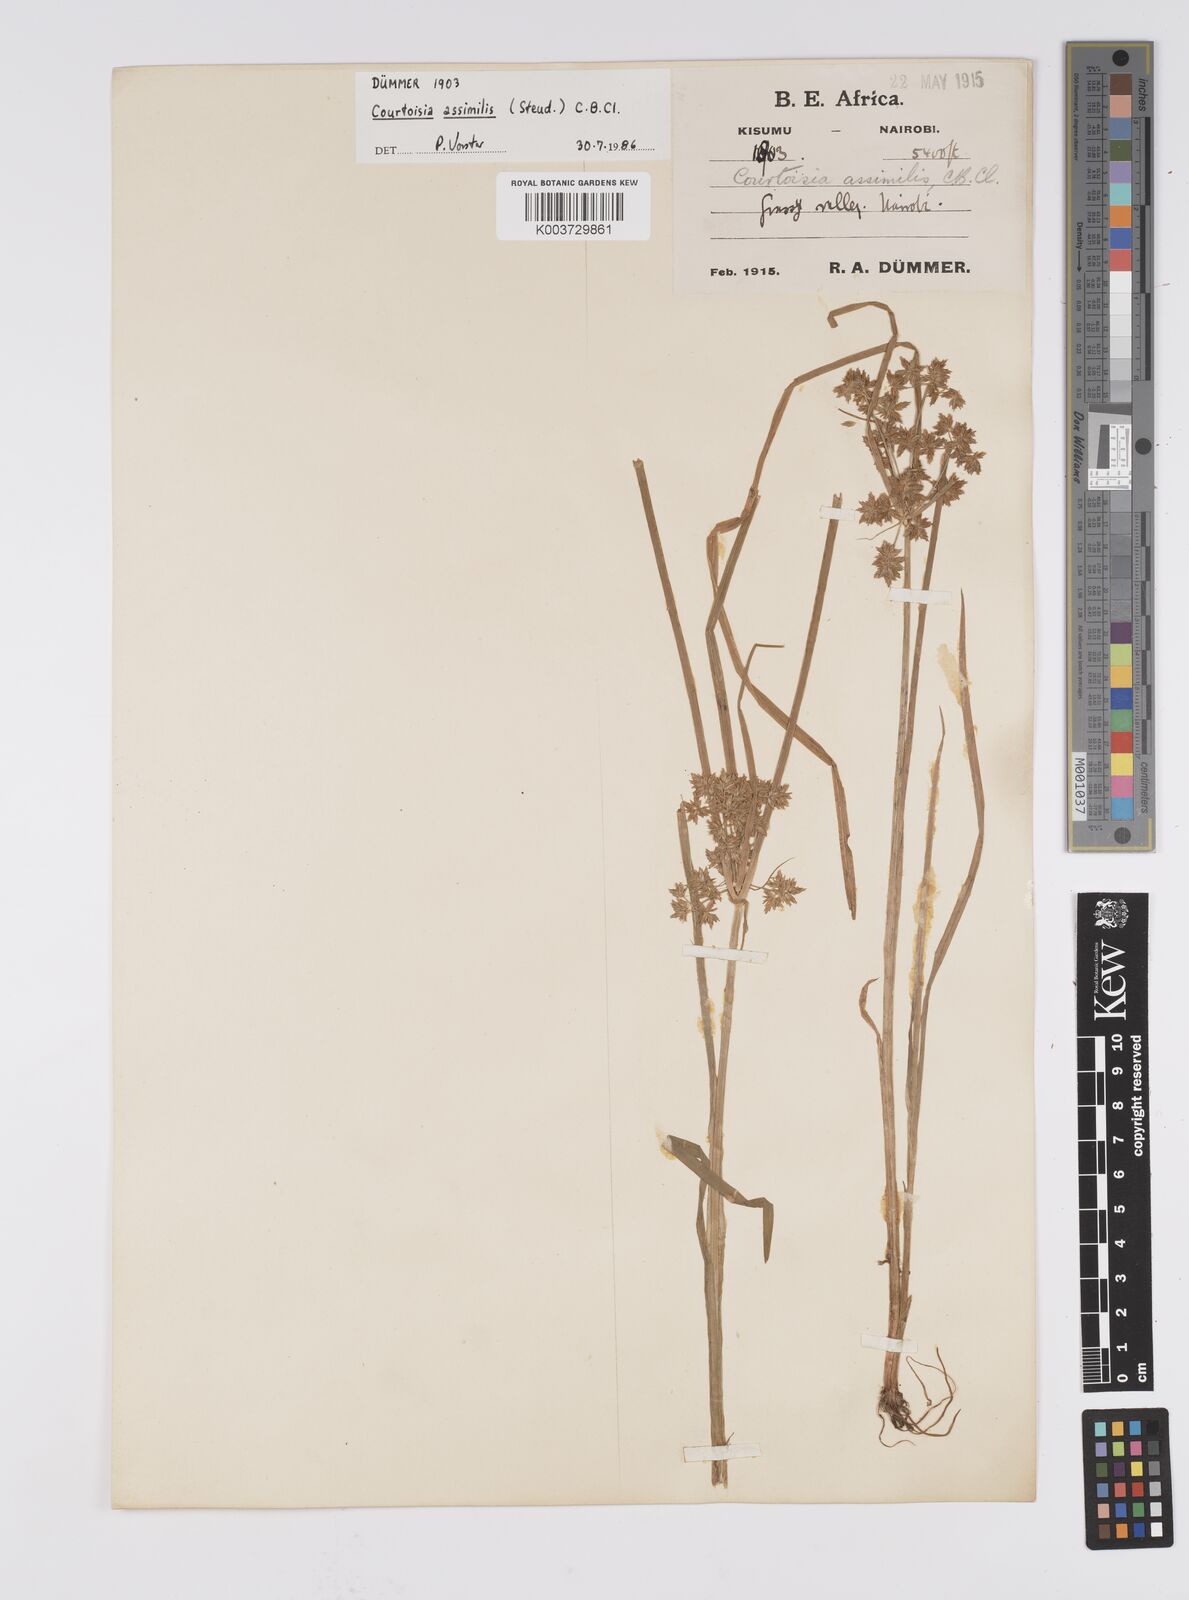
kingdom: Plantae
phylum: Tracheophyta
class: Liliopsida
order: Poales
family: Cyperaceae
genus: Cyperus
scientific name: Cyperus assimilis
